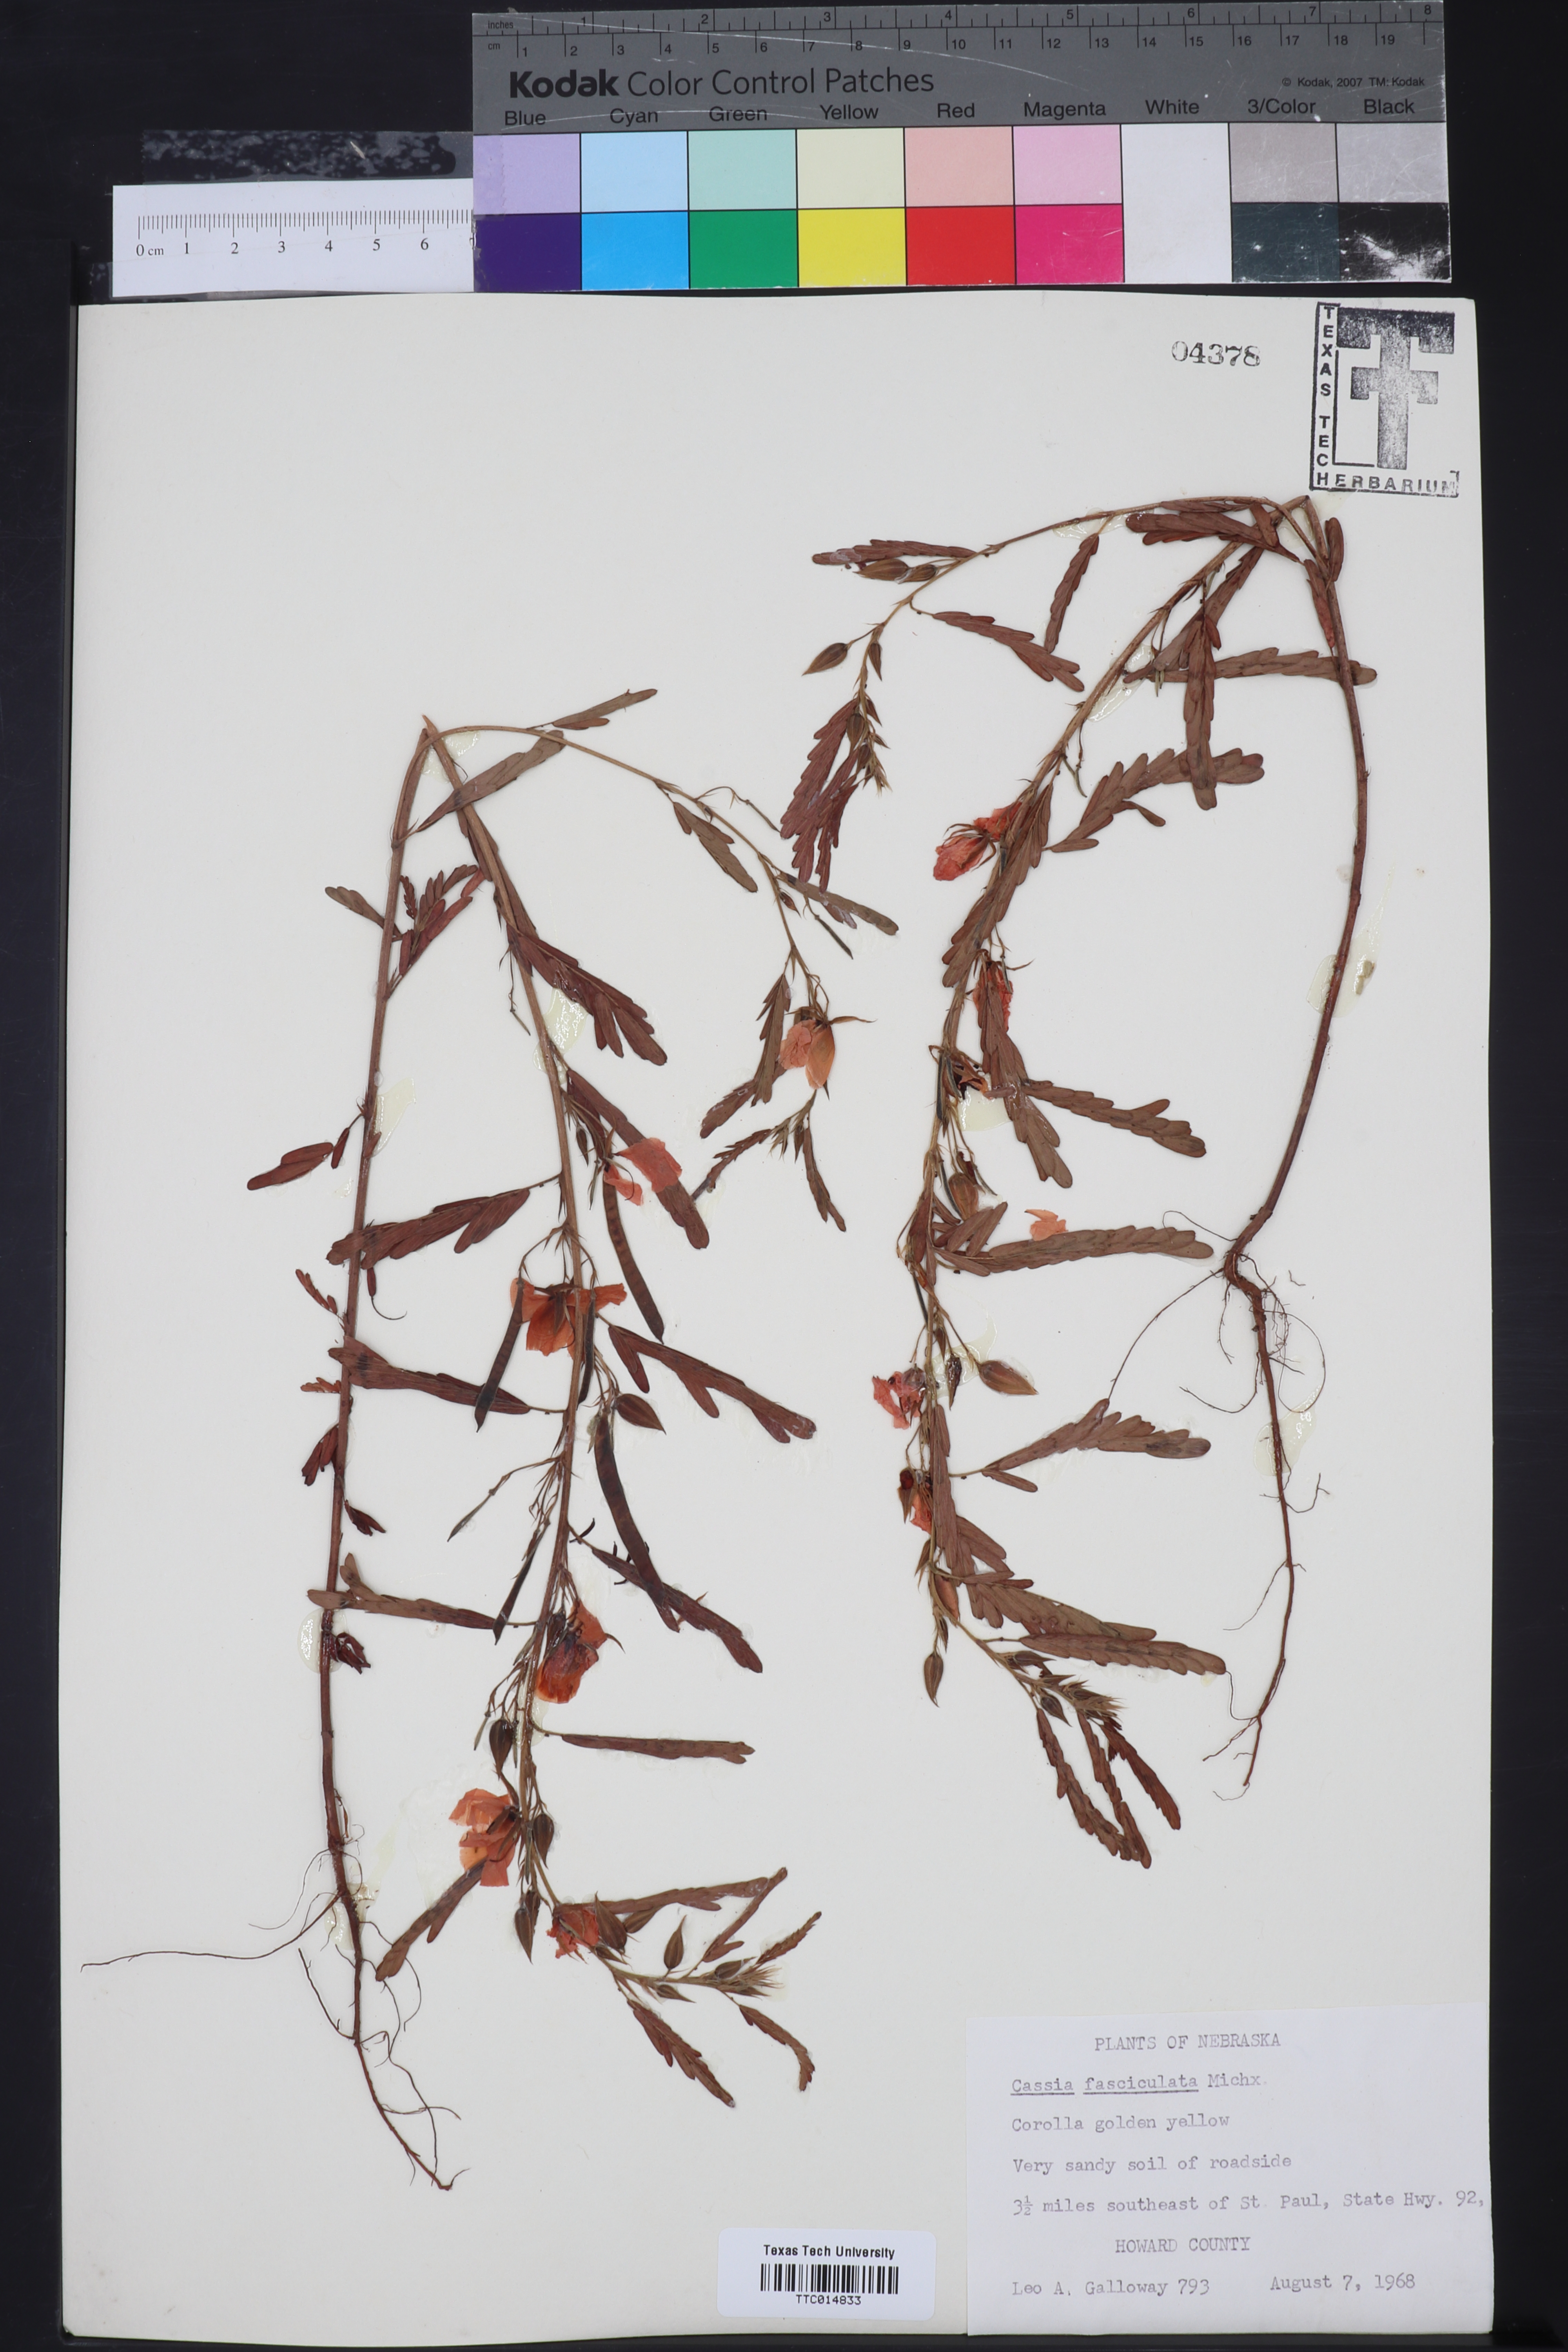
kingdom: Plantae
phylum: Tracheophyta
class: Magnoliopsida
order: Fabales
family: Fabaceae
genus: Chamaecrista
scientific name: Chamaecrista fasciculata
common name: Golden cassia
